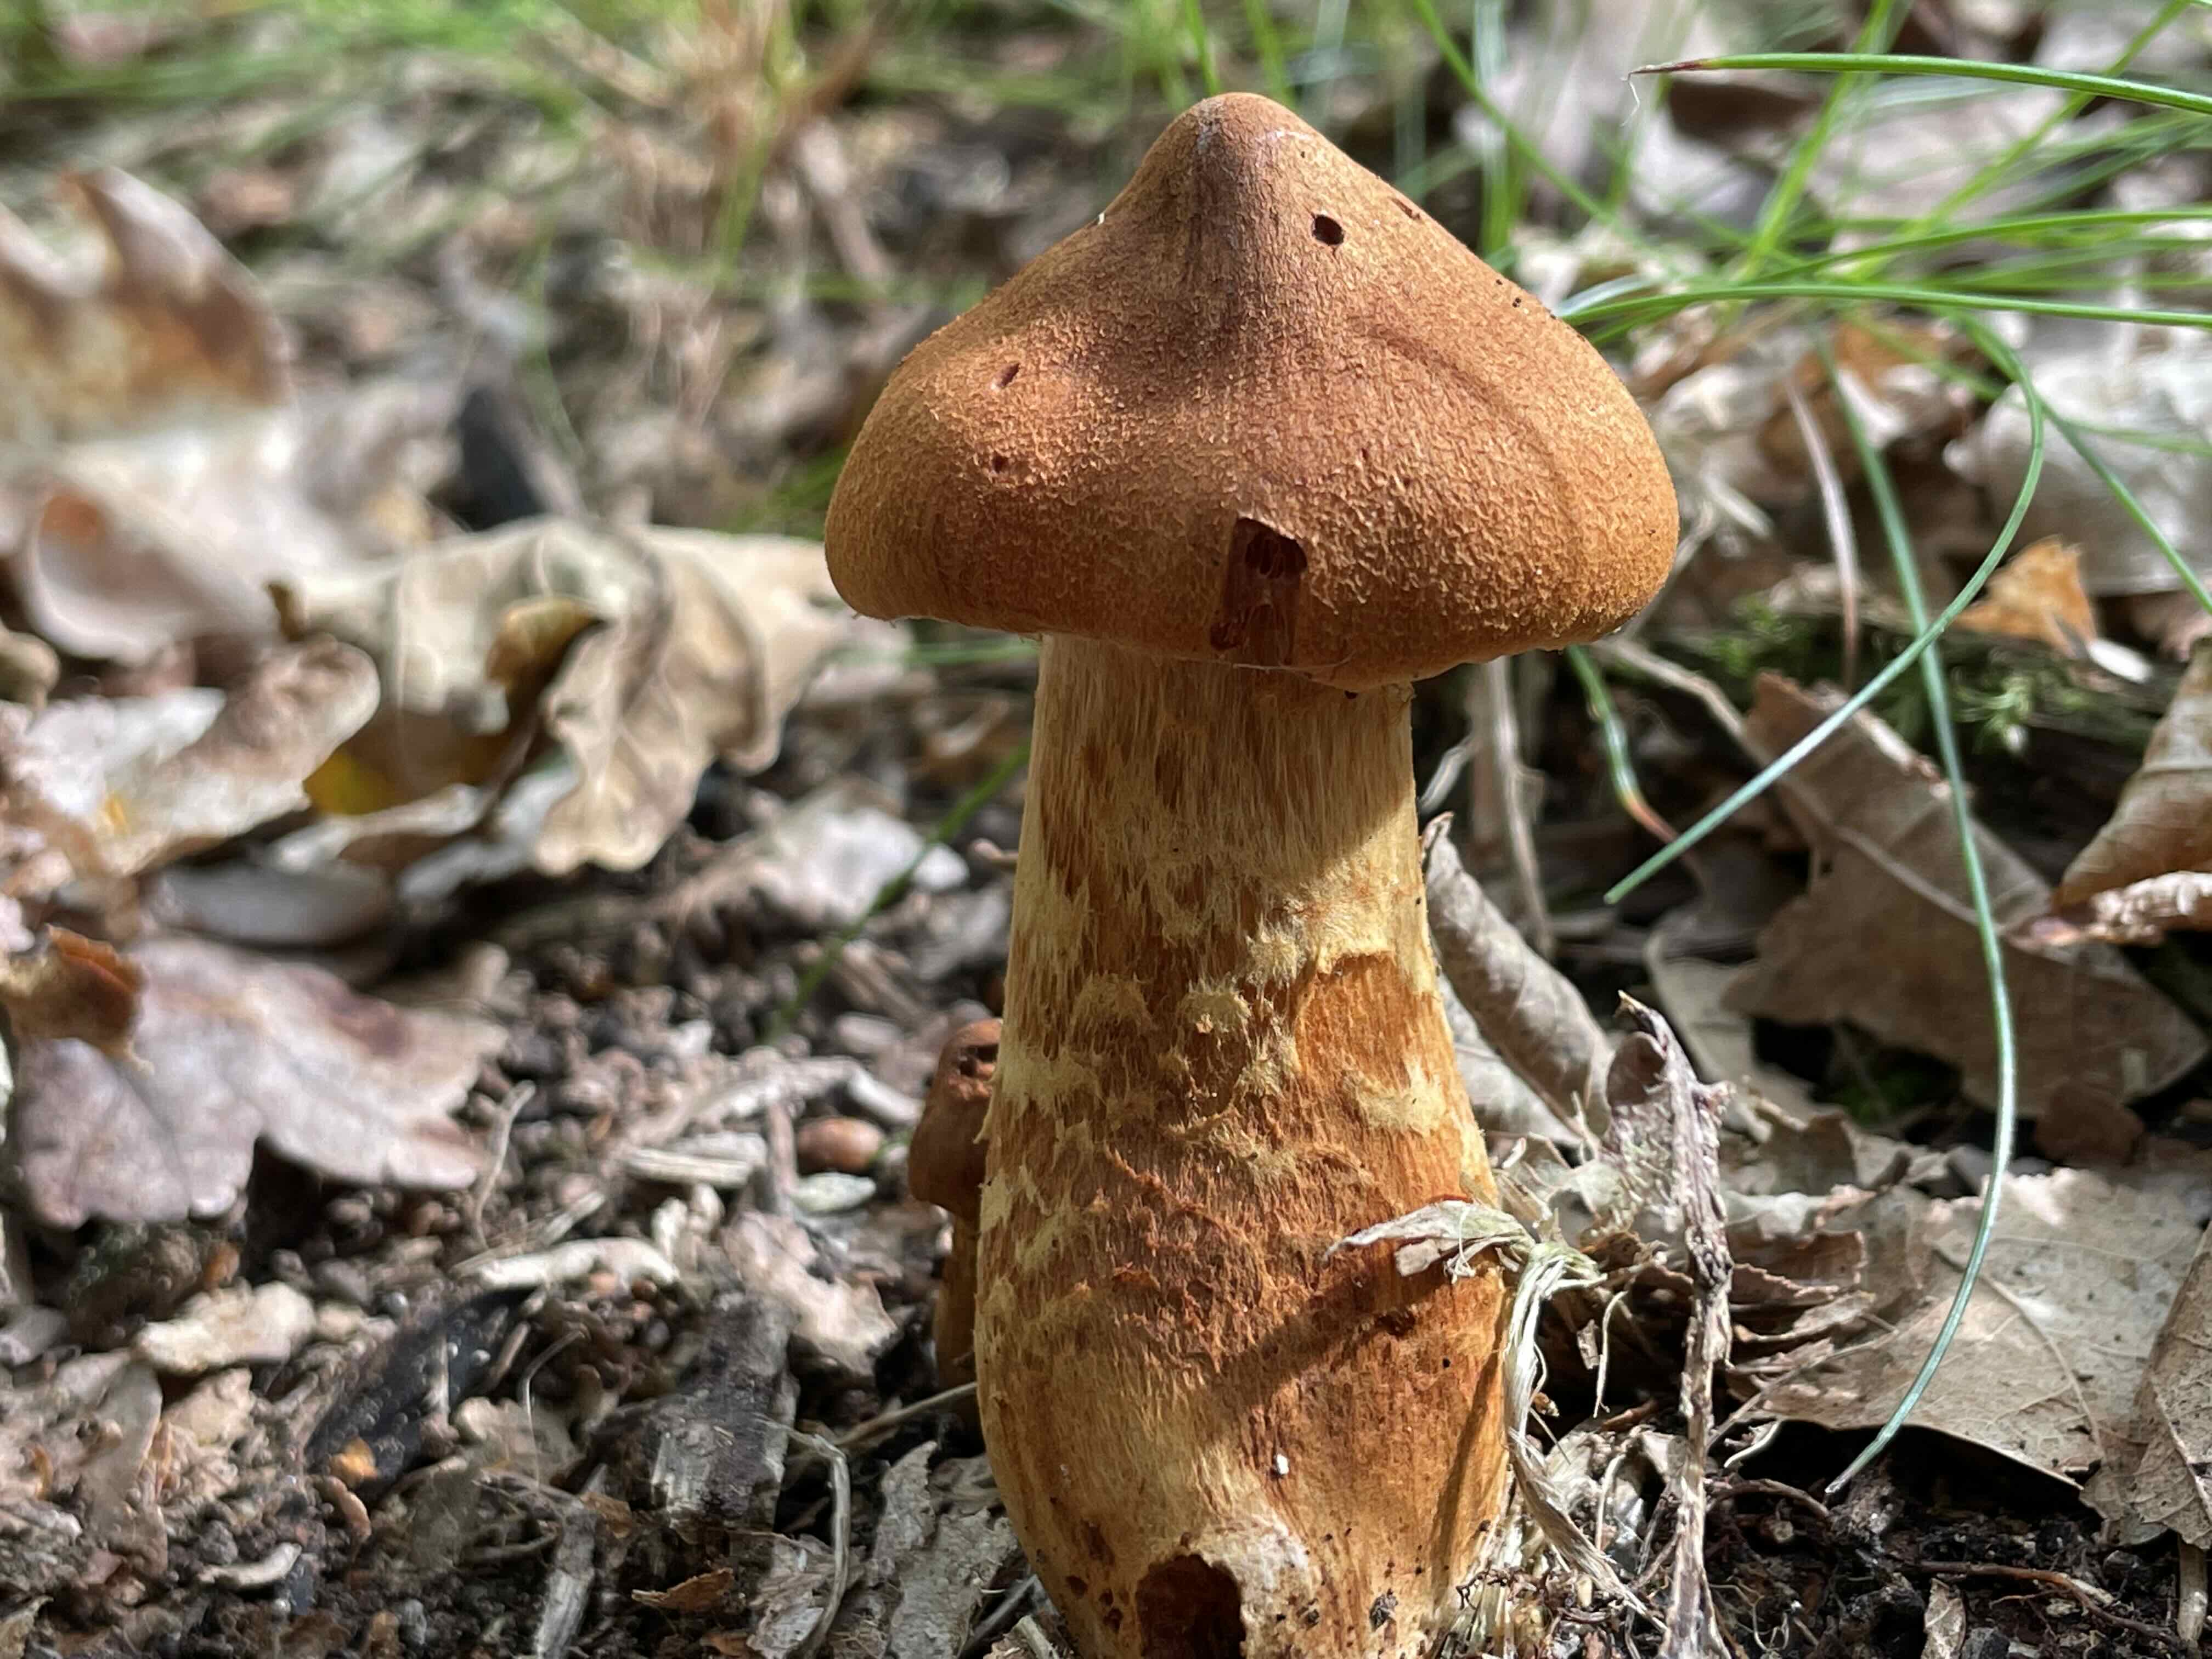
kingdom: Fungi
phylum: Basidiomycota
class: Agaricomycetes
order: Agaricales
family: Cortinariaceae
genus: Cortinarius
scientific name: Cortinarius rubellus
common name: puklet gift-slørhat
